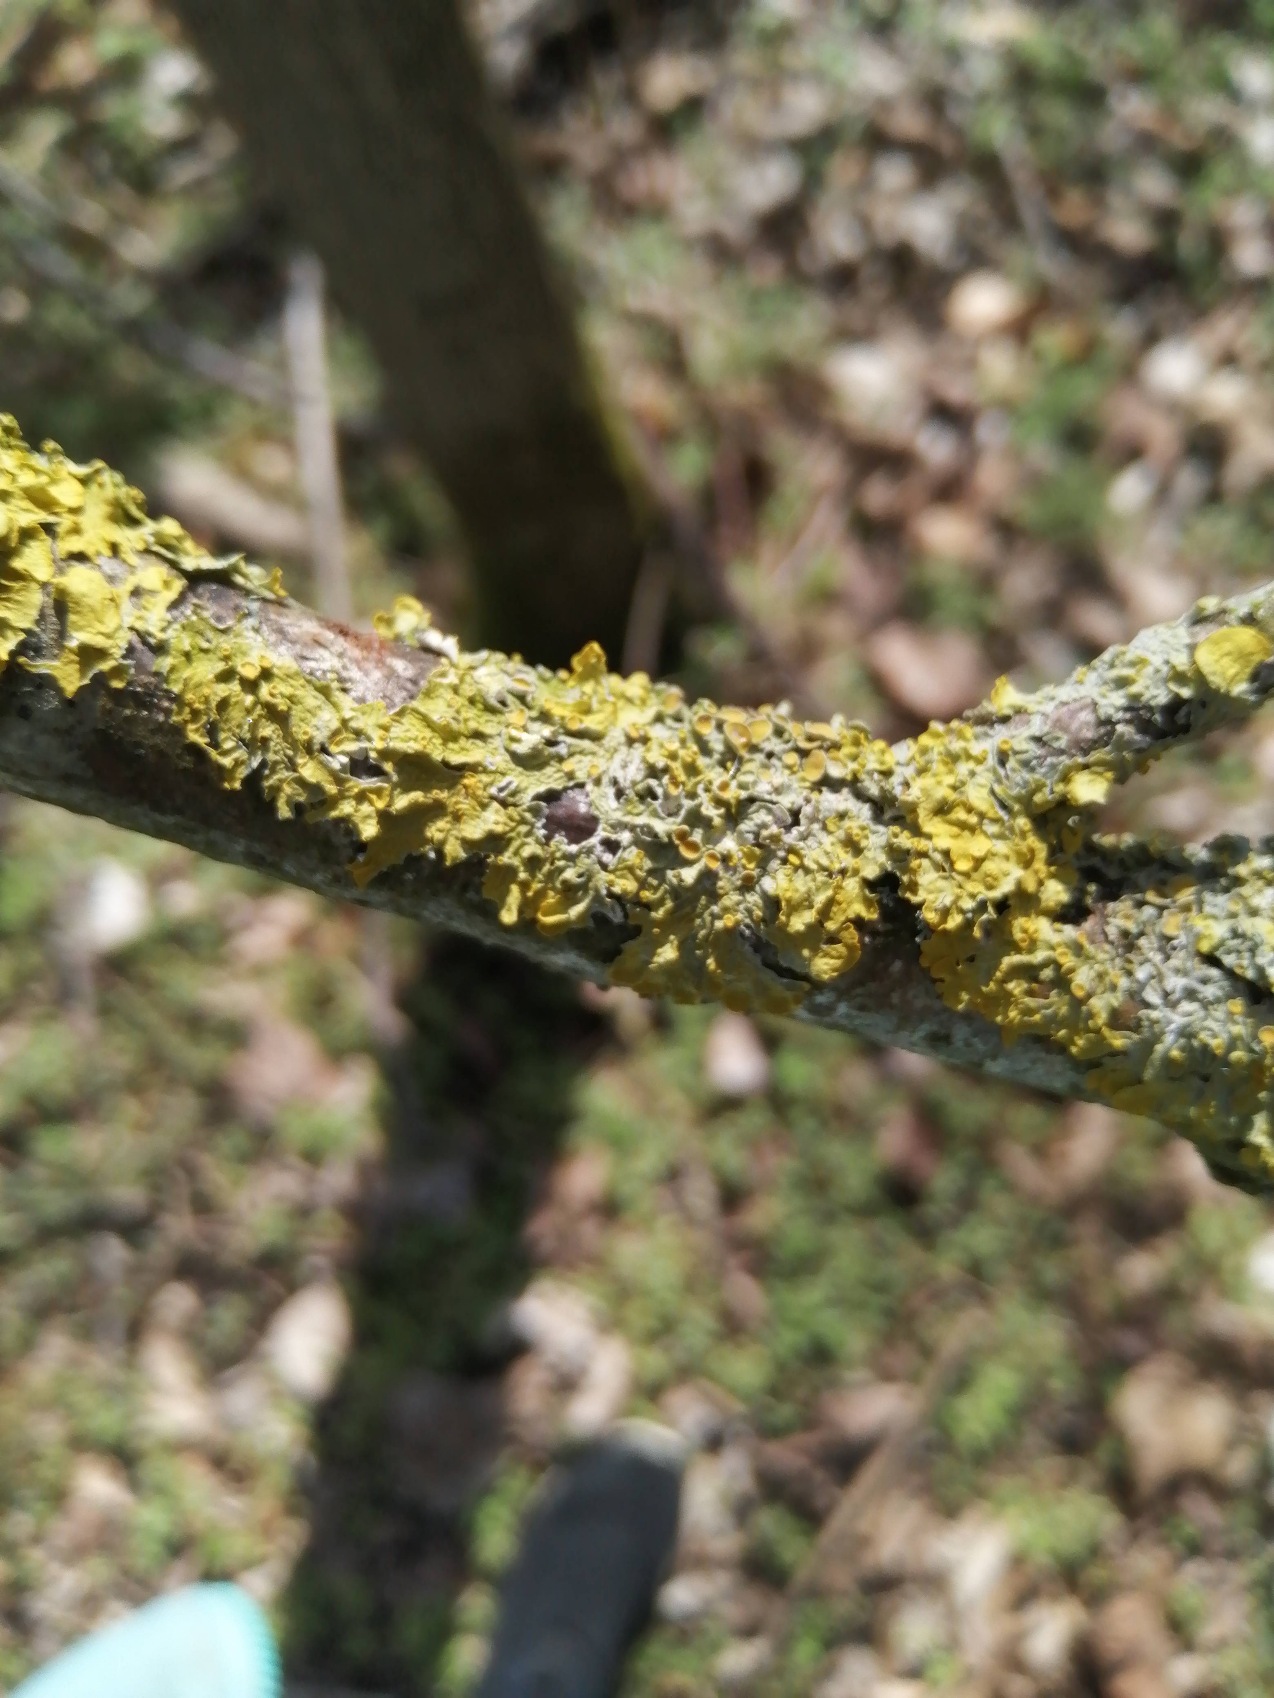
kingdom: Fungi
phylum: Ascomycota
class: Lecanoromycetes
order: Teloschistales
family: Teloschistaceae
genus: Xanthoria
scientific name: Xanthoria parietina
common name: Almindelig væggelav
